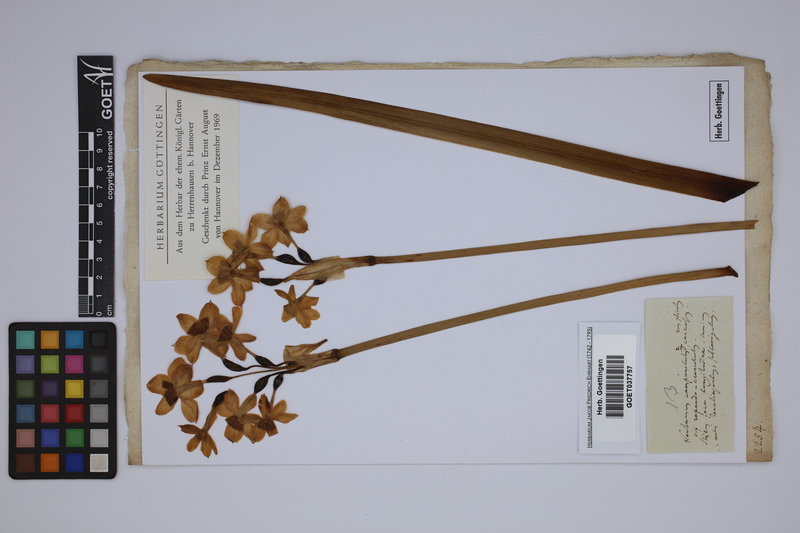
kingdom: Plantae
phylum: Tracheophyta
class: Liliopsida
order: Asparagales
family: Amaryllidaceae
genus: Narcissus
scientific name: Narcissus tazetta
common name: Bunch-flowered daffodil
